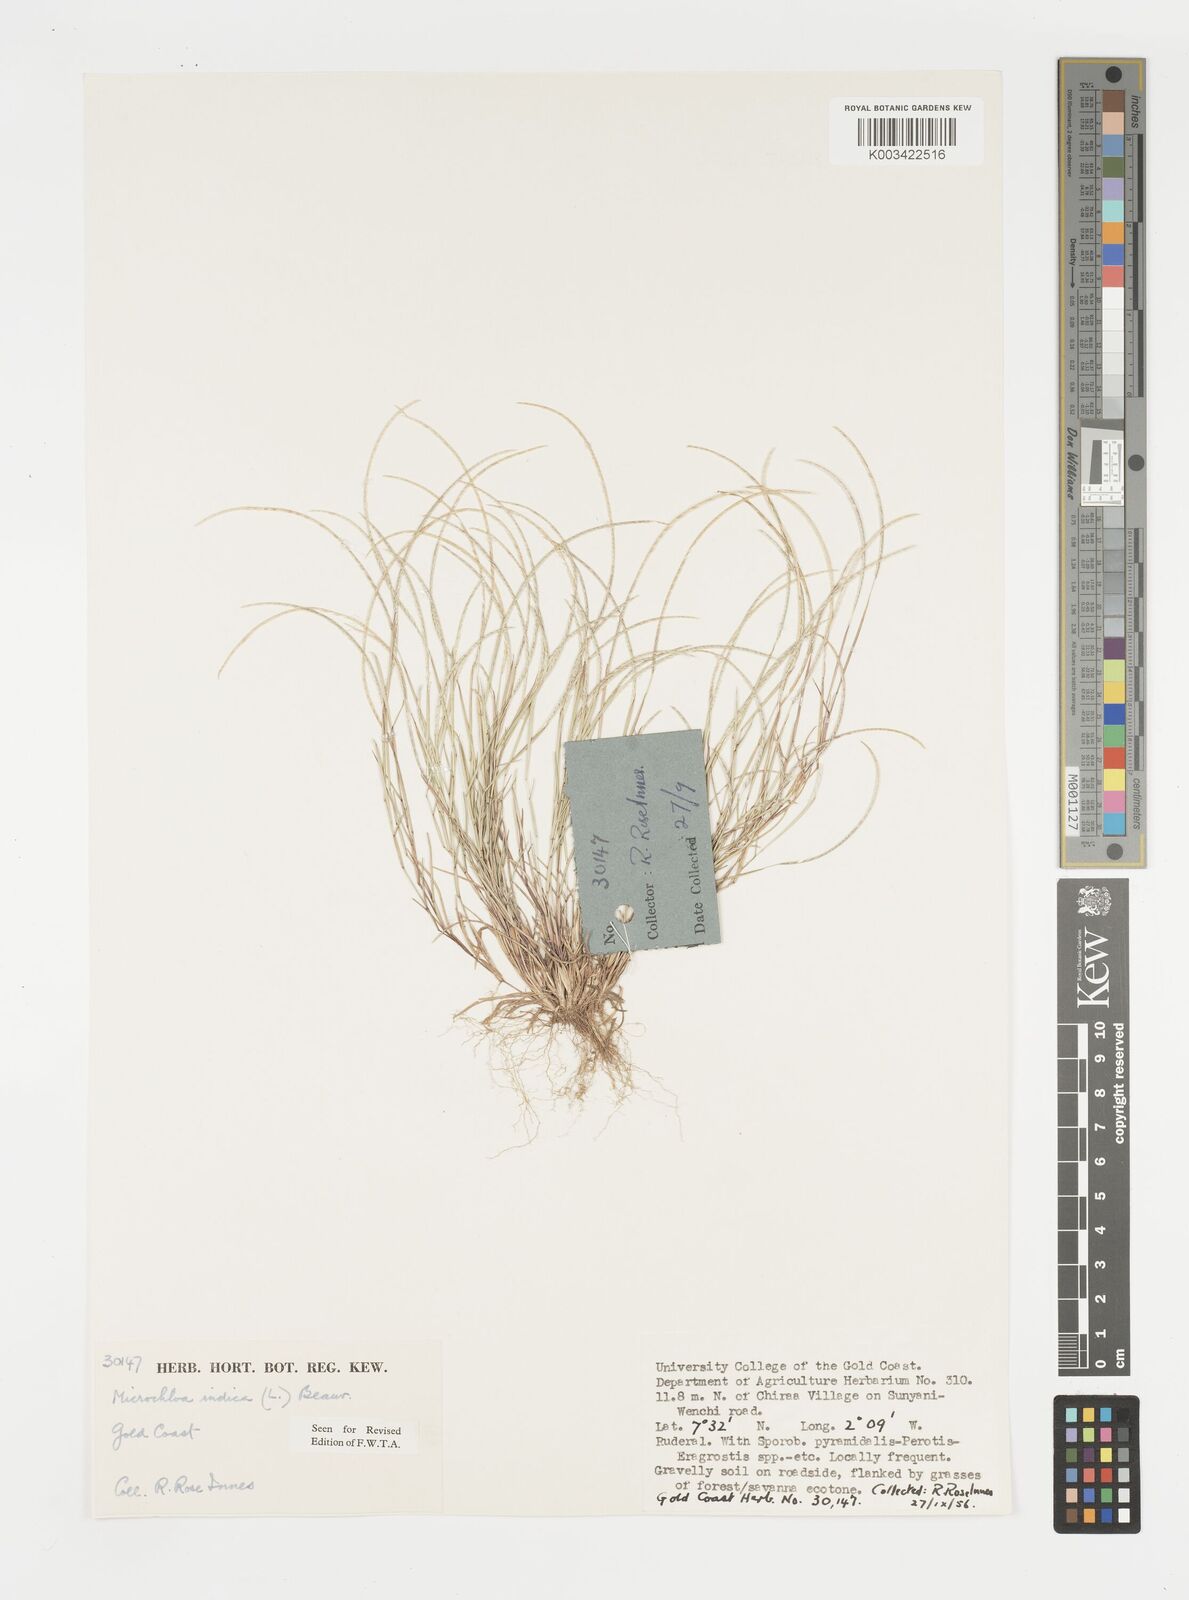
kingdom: Plantae
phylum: Tracheophyta
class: Liliopsida
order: Poales
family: Poaceae
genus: Microchloa
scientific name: Microchloa indica
